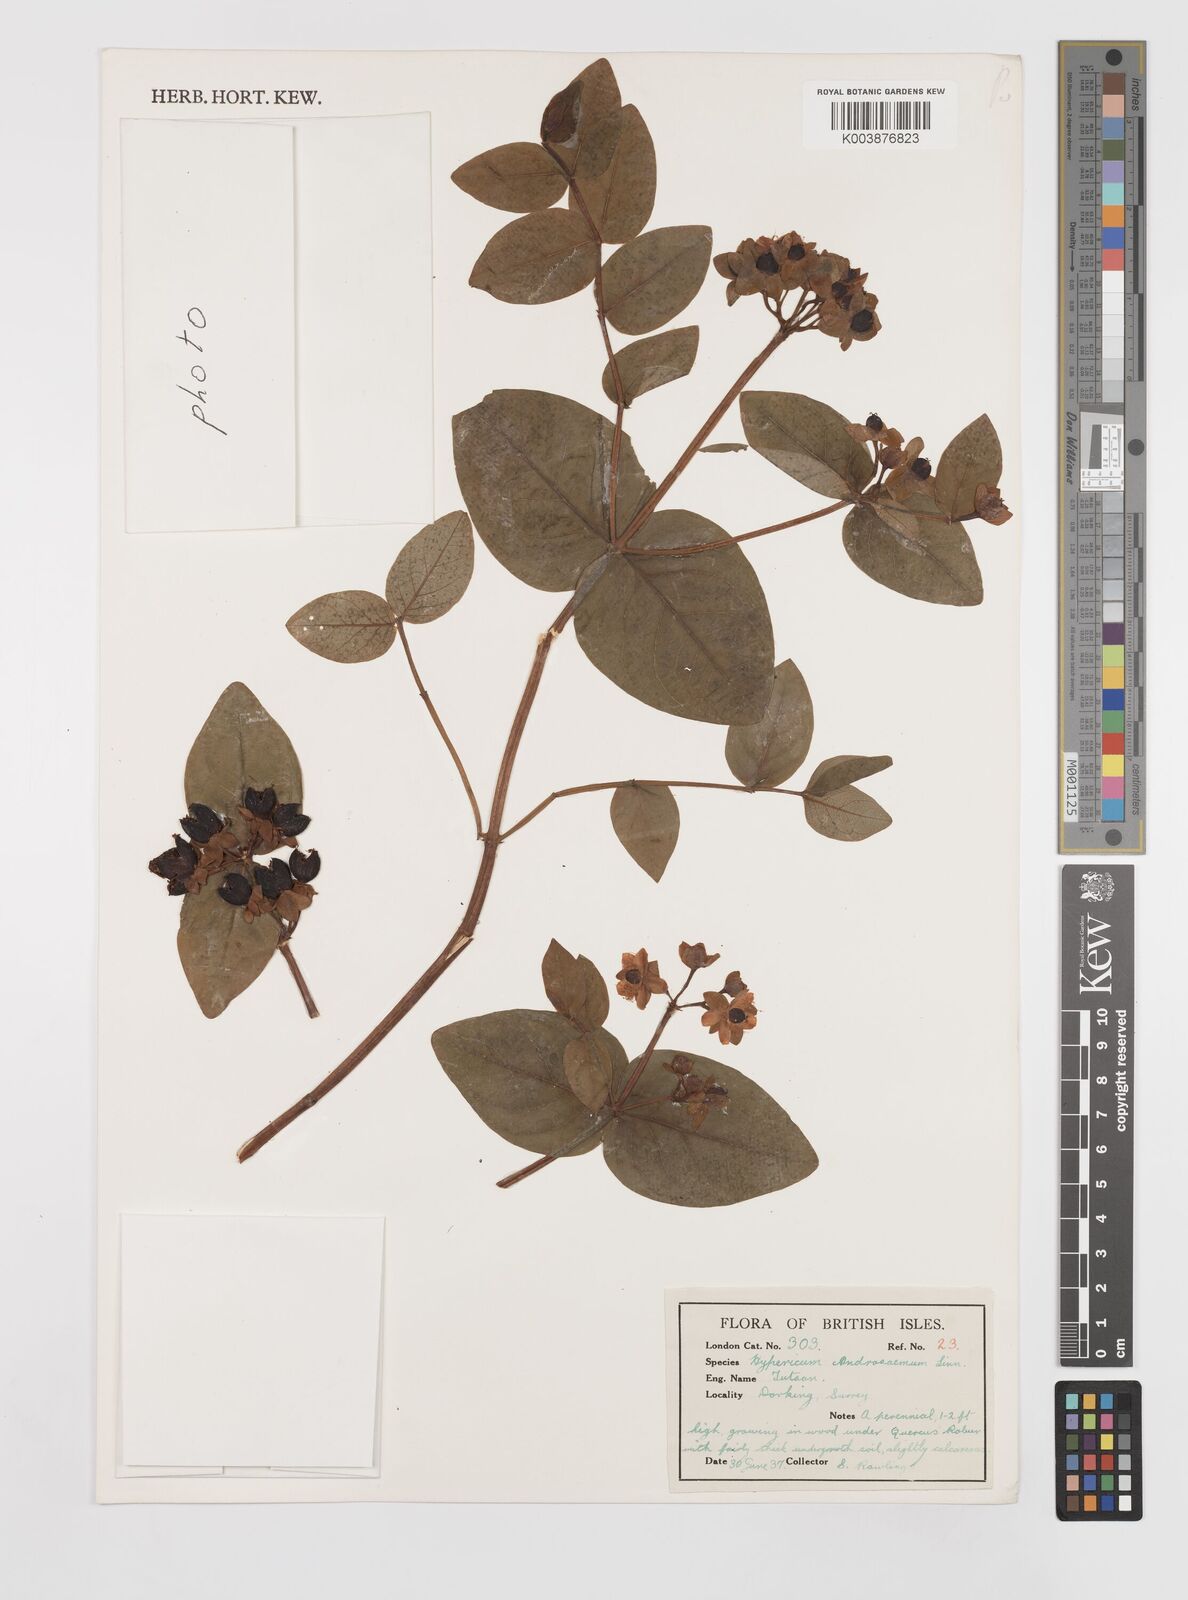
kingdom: Plantae
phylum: Tracheophyta
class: Magnoliopsida
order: Malpighiales
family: Hypericaceae
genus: Hypericum
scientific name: Hypericum androsaemum
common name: Sweet-amber
